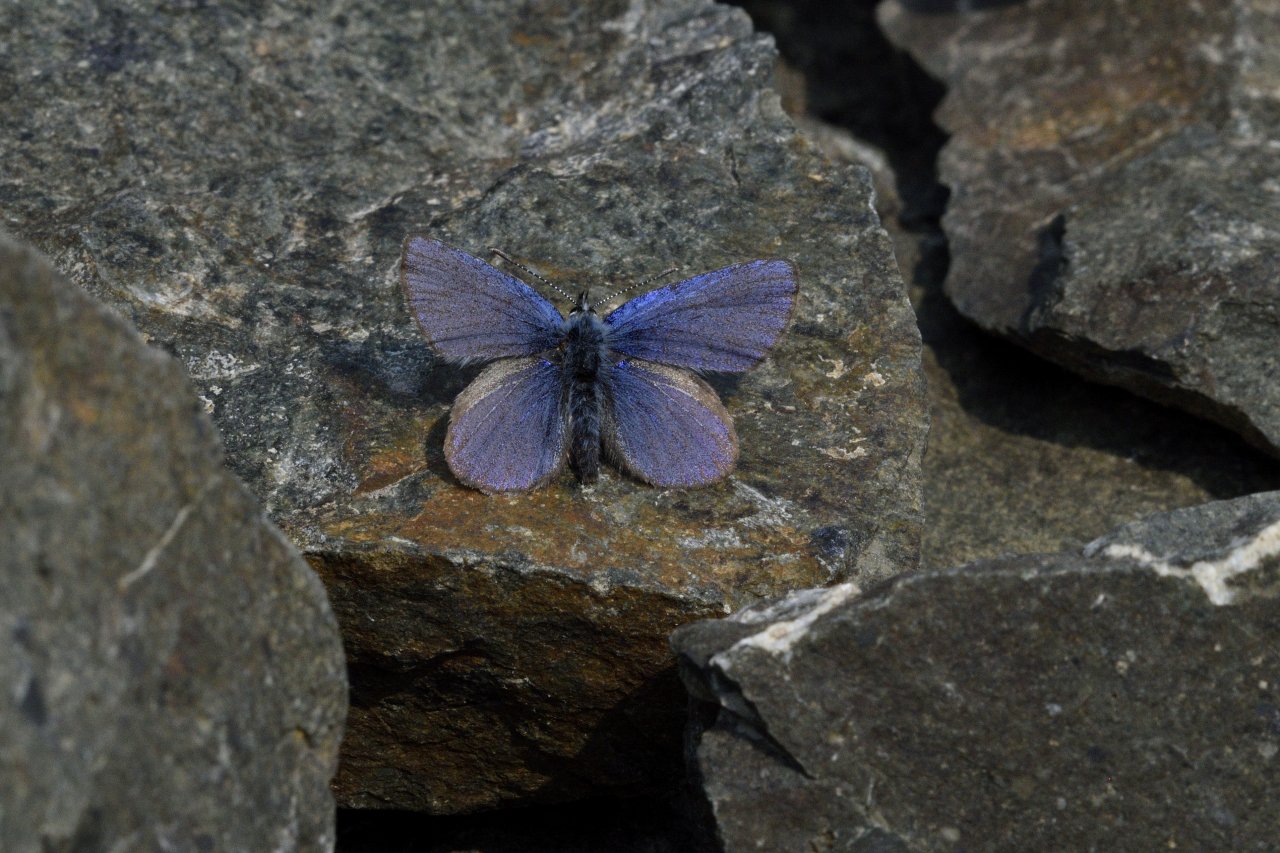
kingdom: Animalia
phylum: Arthropoda
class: Insecta
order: Lepidoptera
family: Lycaenidae
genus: Lycaeides
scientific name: Lycaeides idas
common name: Northern Blue
